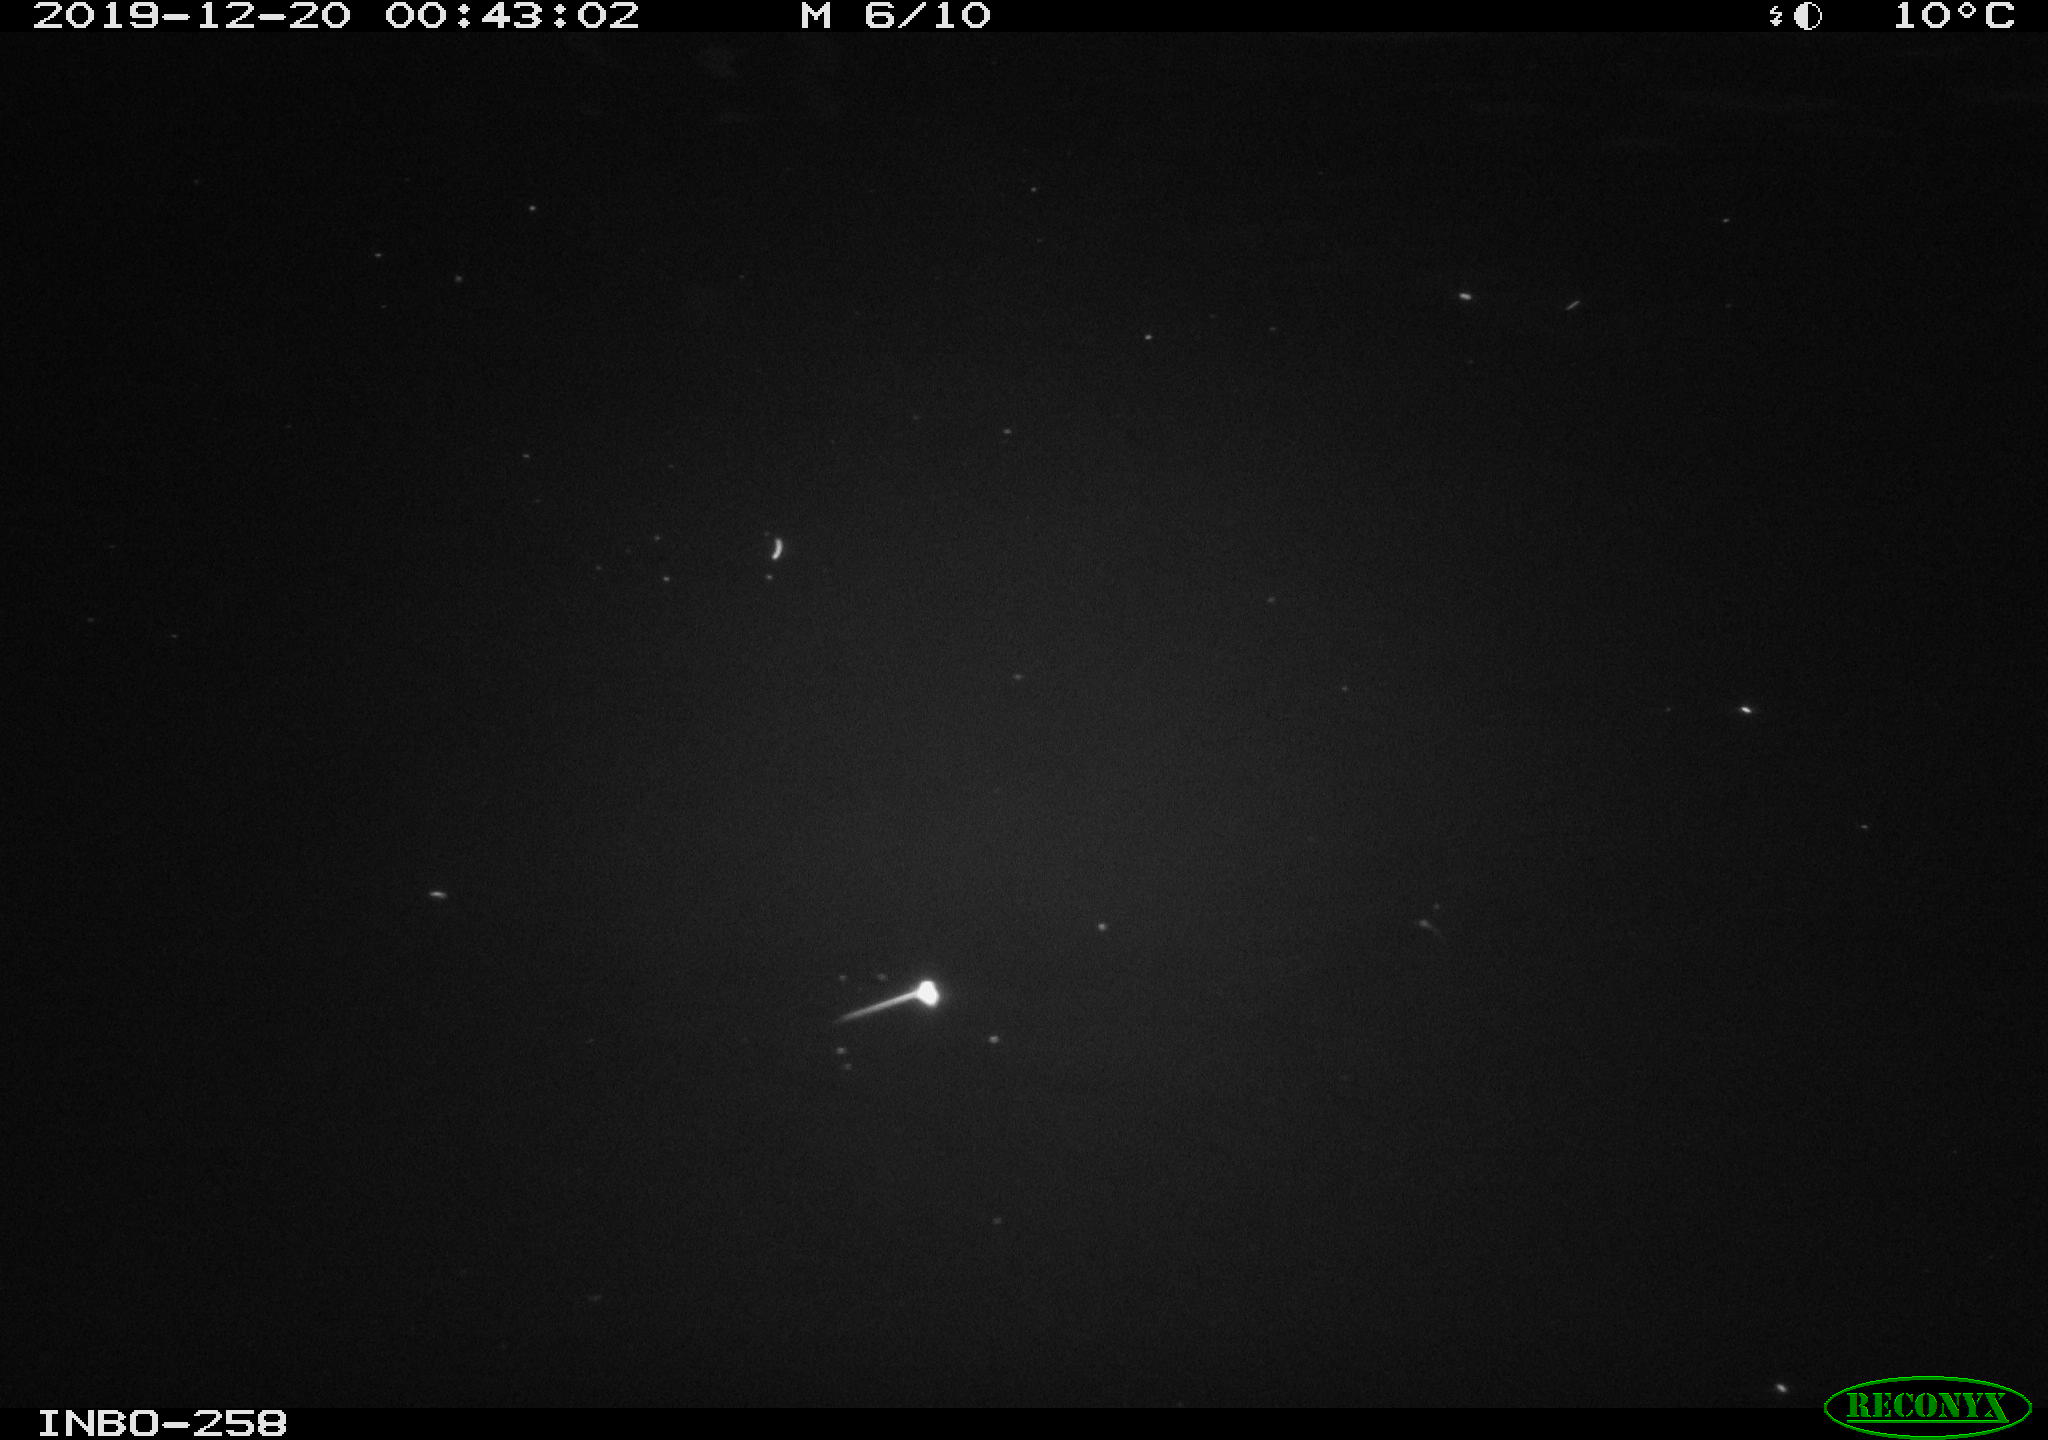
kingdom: Animalia
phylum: Chordata
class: Aves
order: Anseriformes
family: Anatidae
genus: Anas
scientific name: Anas platyrhynchos
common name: Mallard
